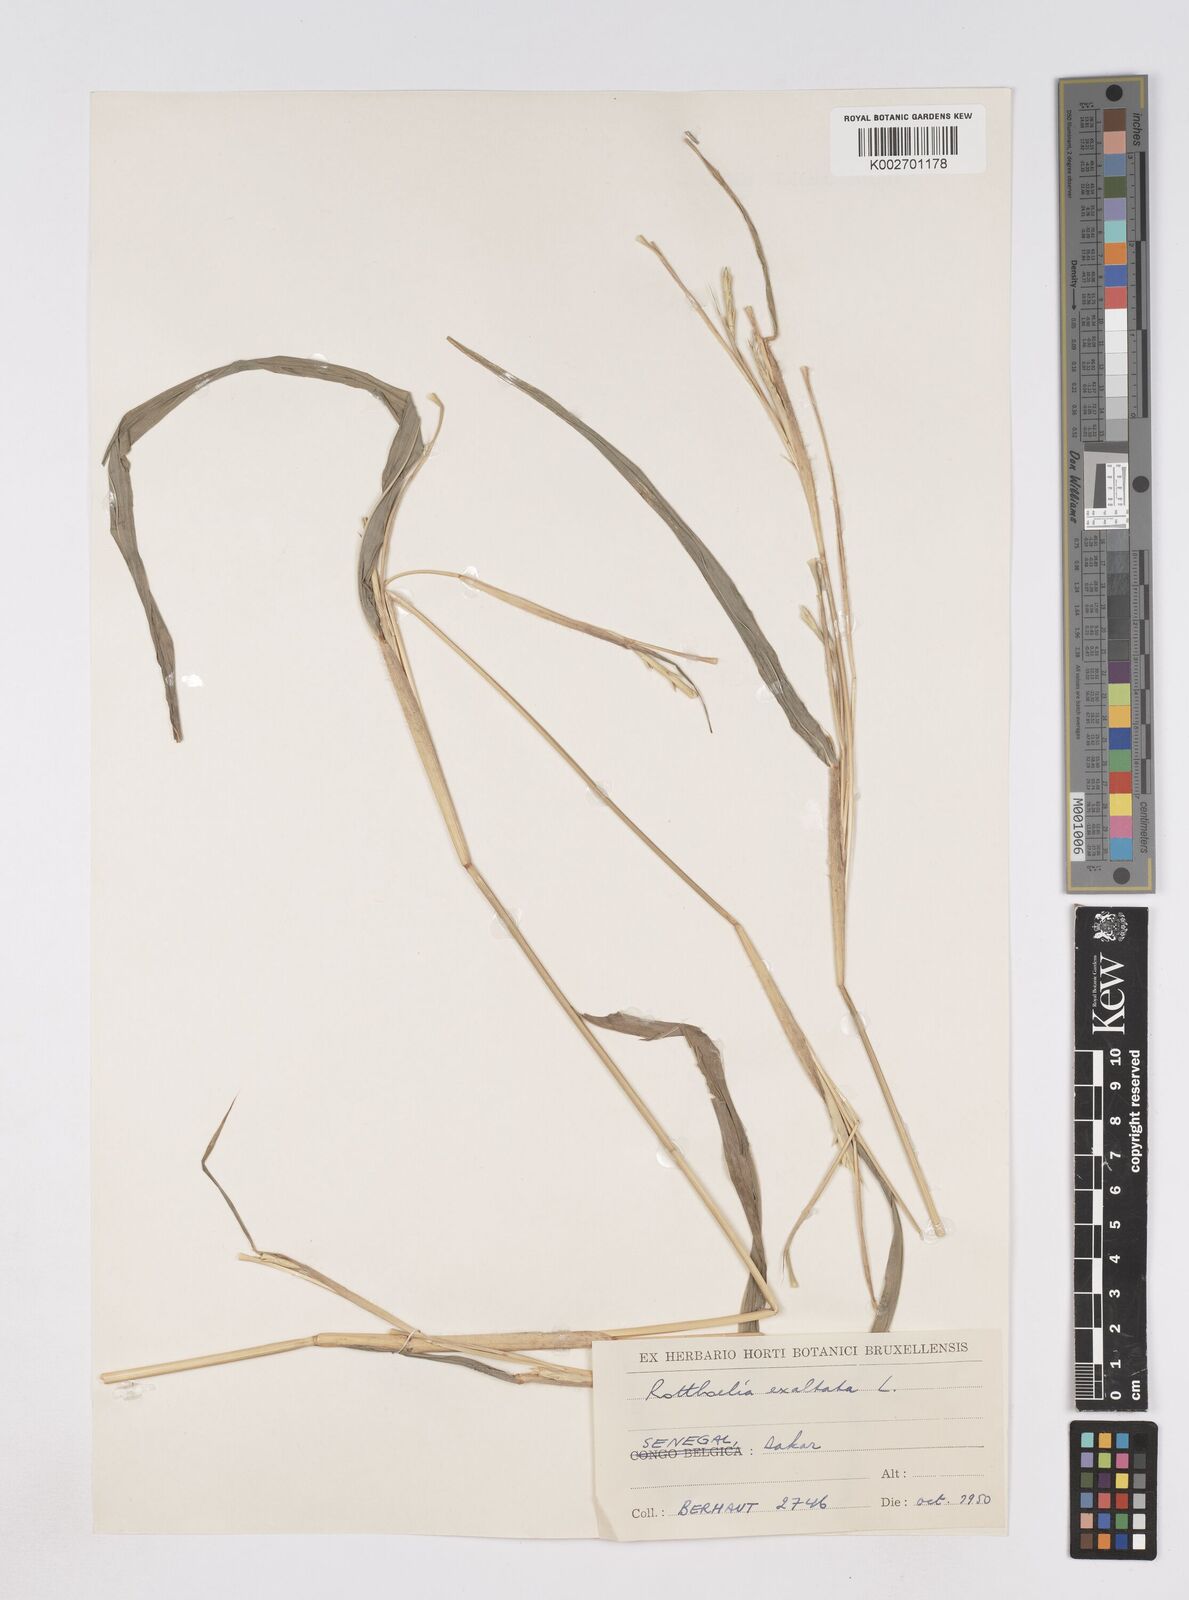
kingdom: Plantae
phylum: Tracheophyta
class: Liliopsida
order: Poales
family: Poaceae
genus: Ophiuros
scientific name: Ophiuros exaltatus
